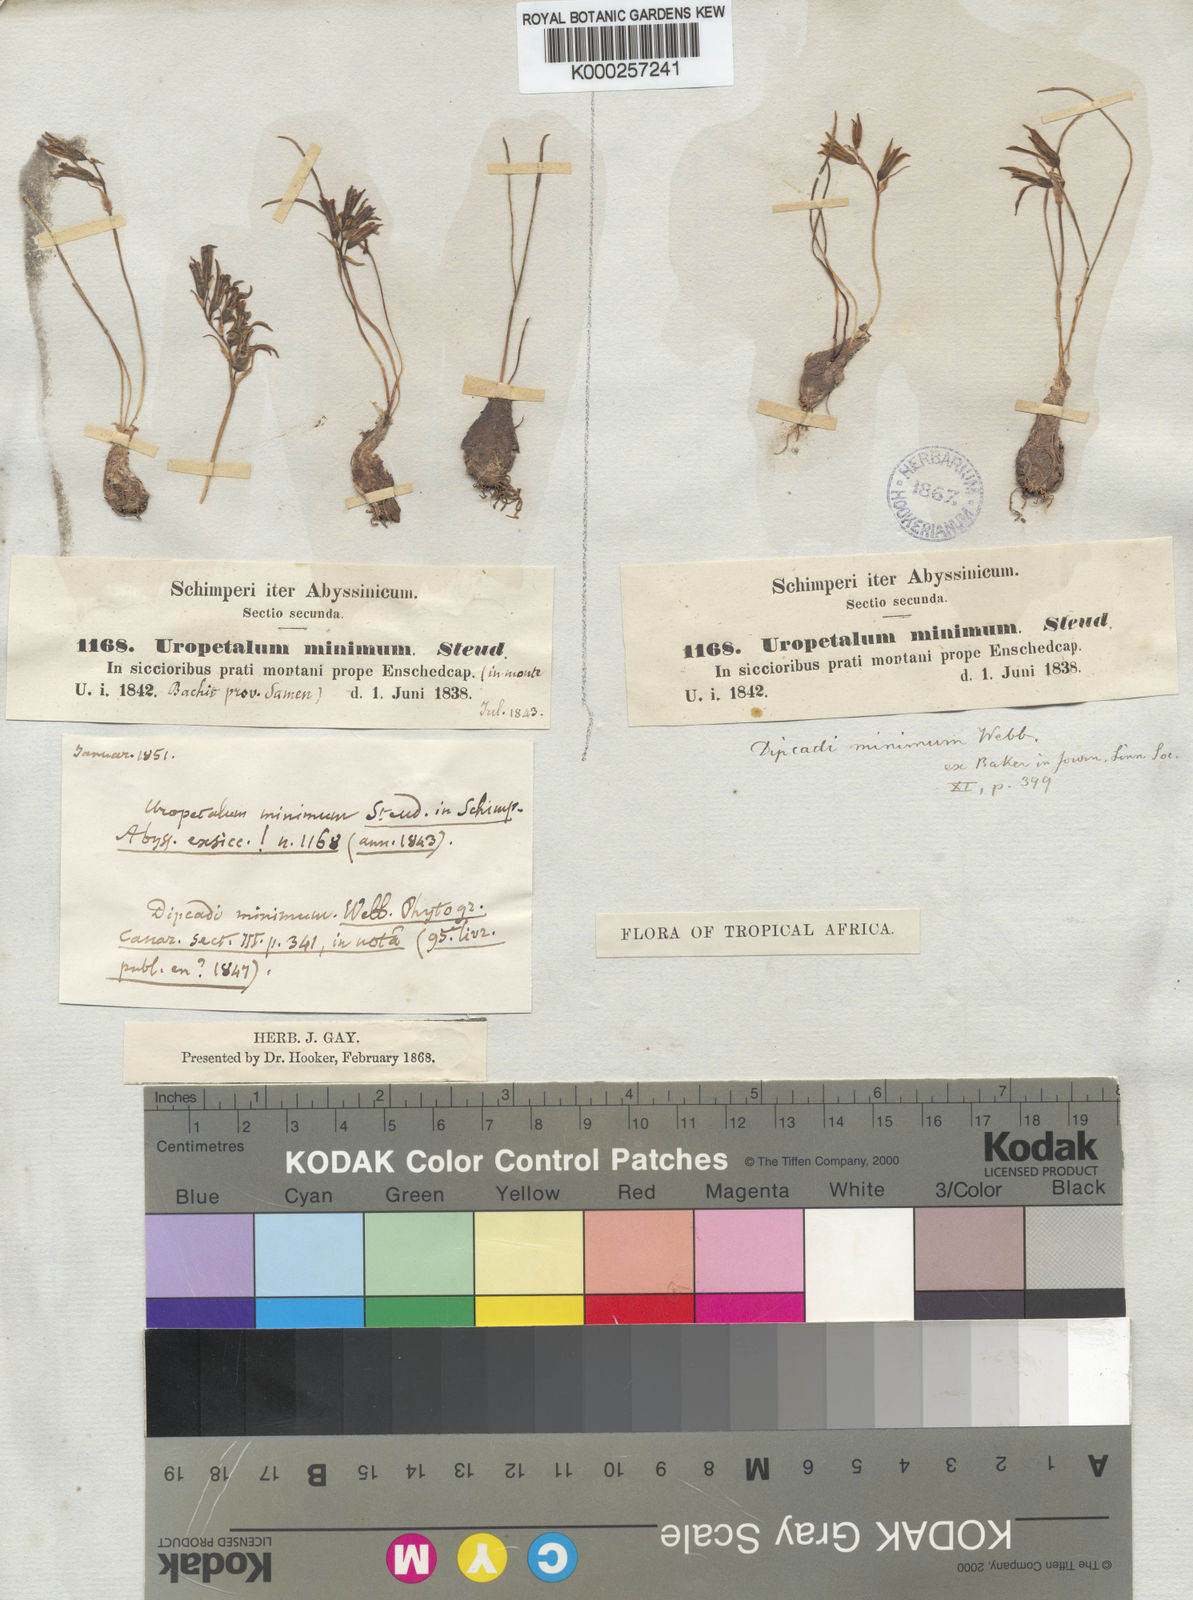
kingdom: Plantae
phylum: Tracheophyta
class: Liliopsida
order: Asparagales
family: Asparagaceae
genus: Dipcadi
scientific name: Dipcadi
